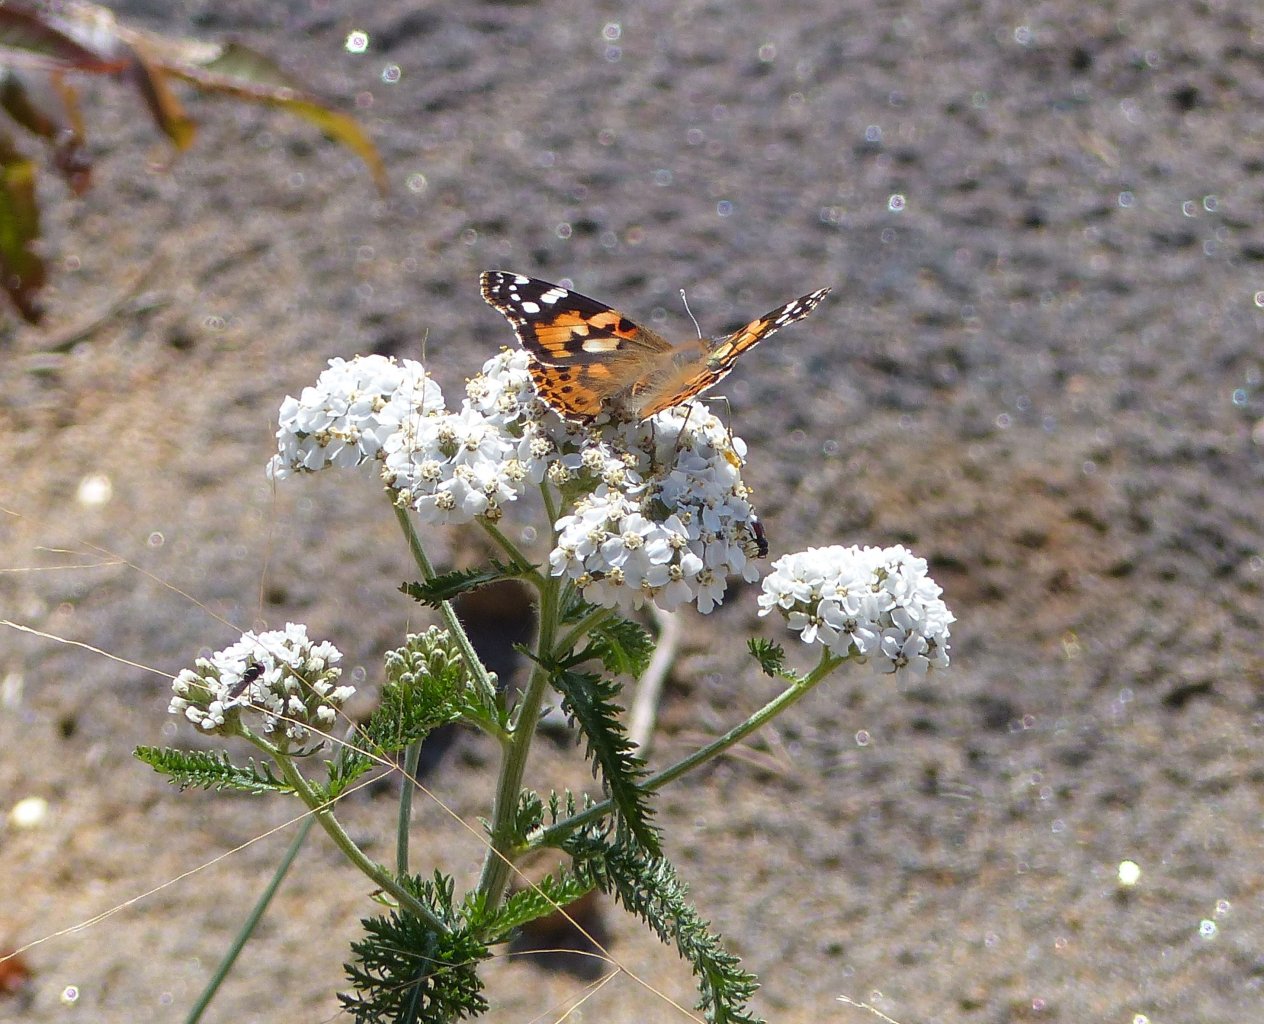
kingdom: Animalia
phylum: Arthropoda
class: Insecta
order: Lepidoptera
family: Nymphalidae
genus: Vanessa
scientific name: Vanessa cardui
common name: Painted Lady
